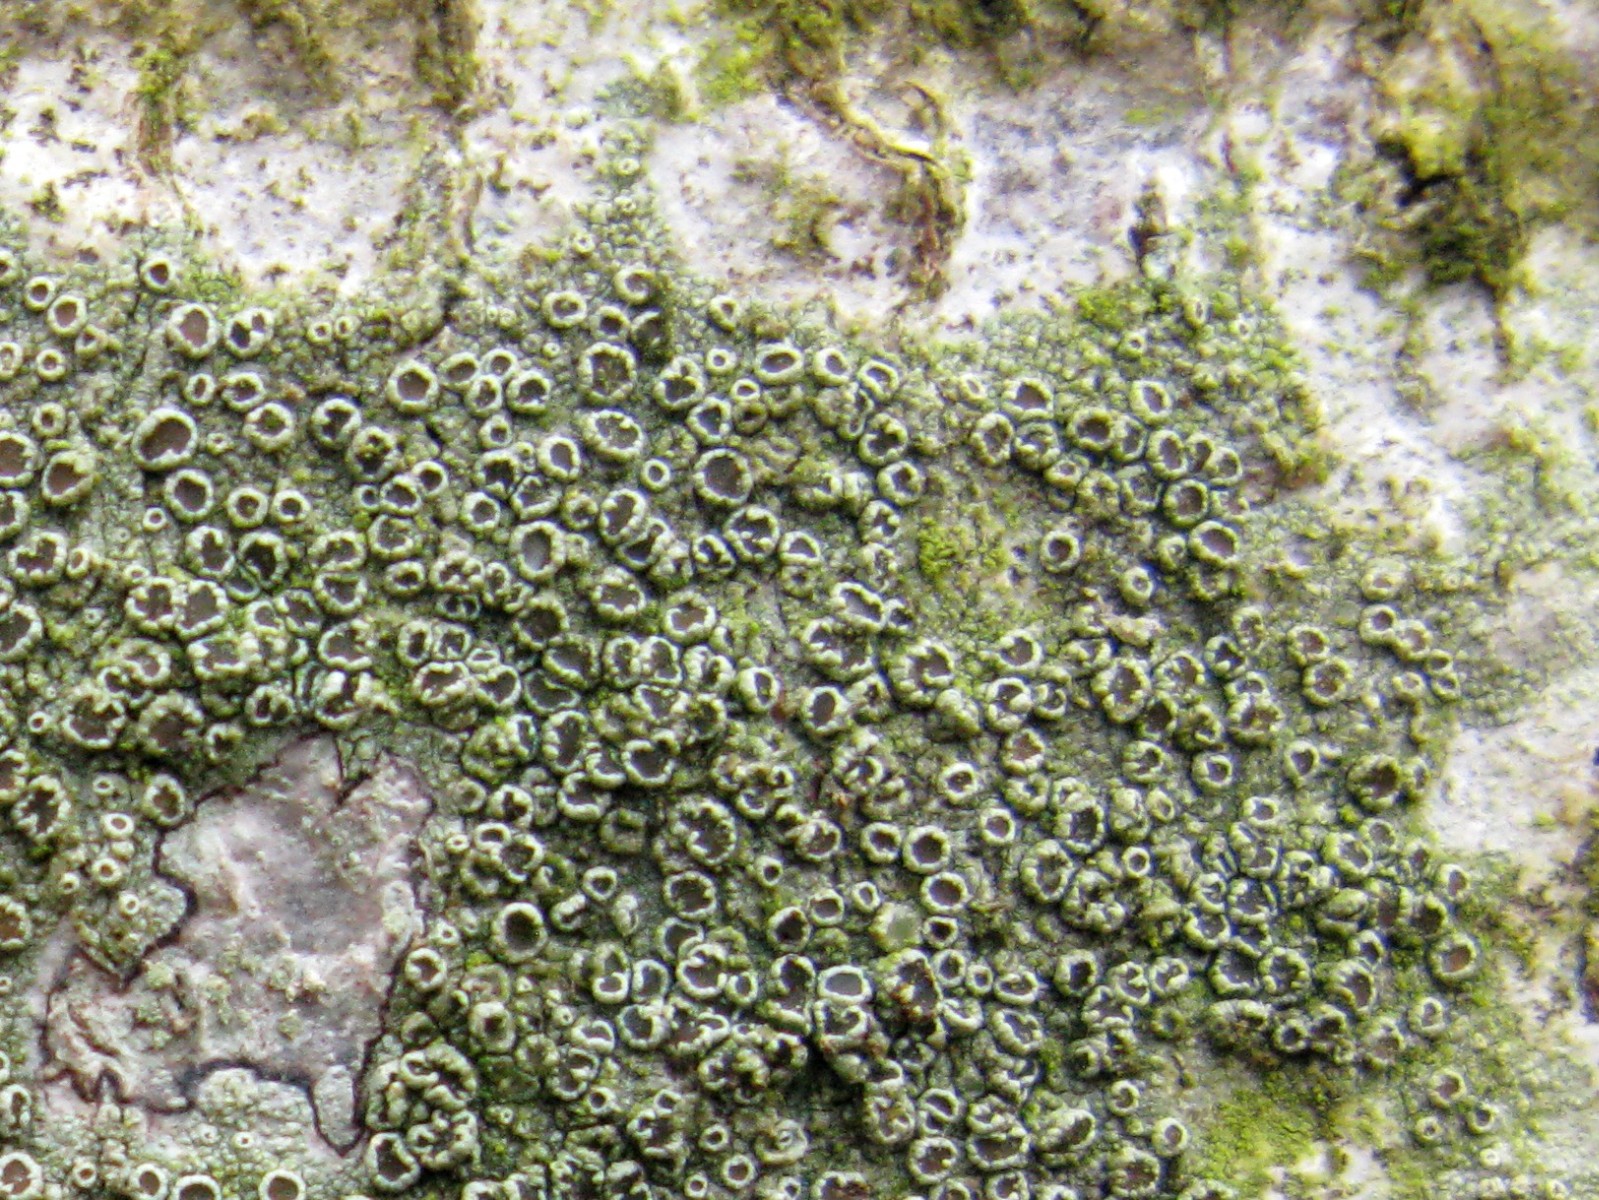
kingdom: Fungi
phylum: Ascomycota
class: Lecanoromycetes
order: Lecanorales
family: Lecanoraceae
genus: Lecanora
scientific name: Lecanora argentata
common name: sølv-kantskivelav
